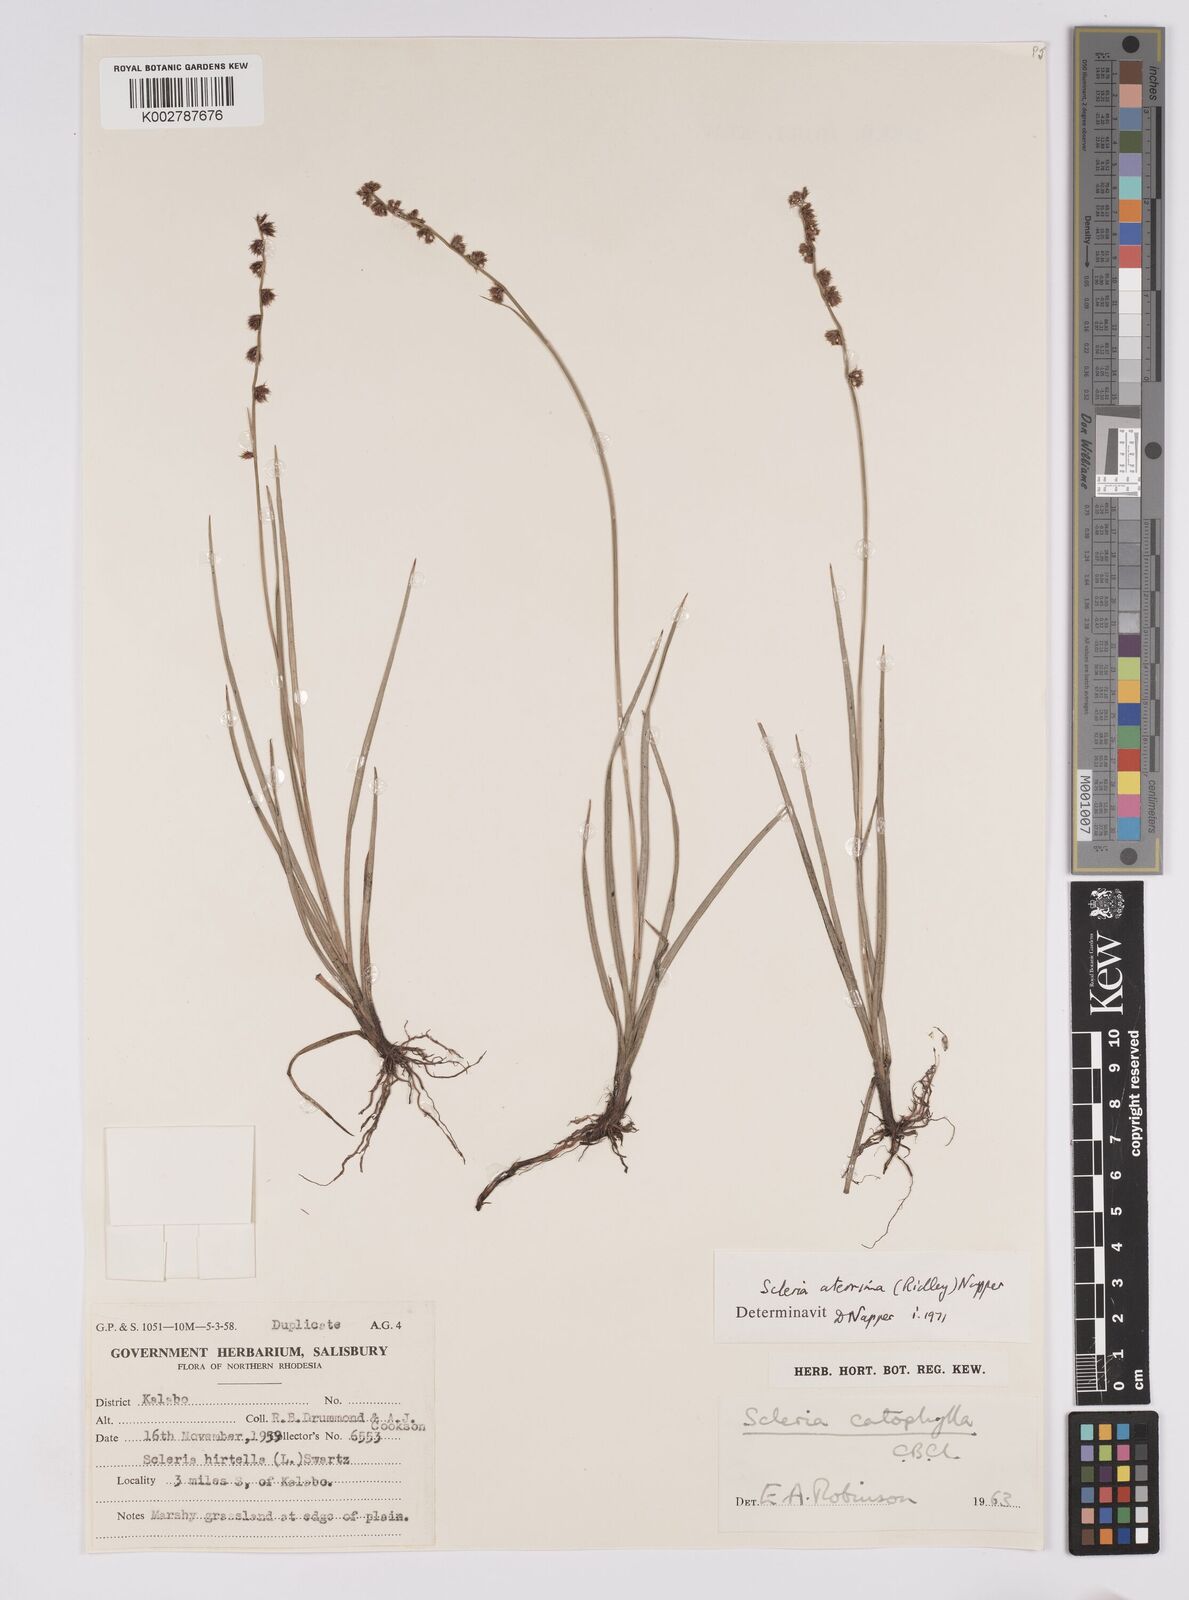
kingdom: Plantae
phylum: Tracheophyta
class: Liliopsida
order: Poales
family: Cyperaceae
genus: Scleria
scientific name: Scleria catophylla
